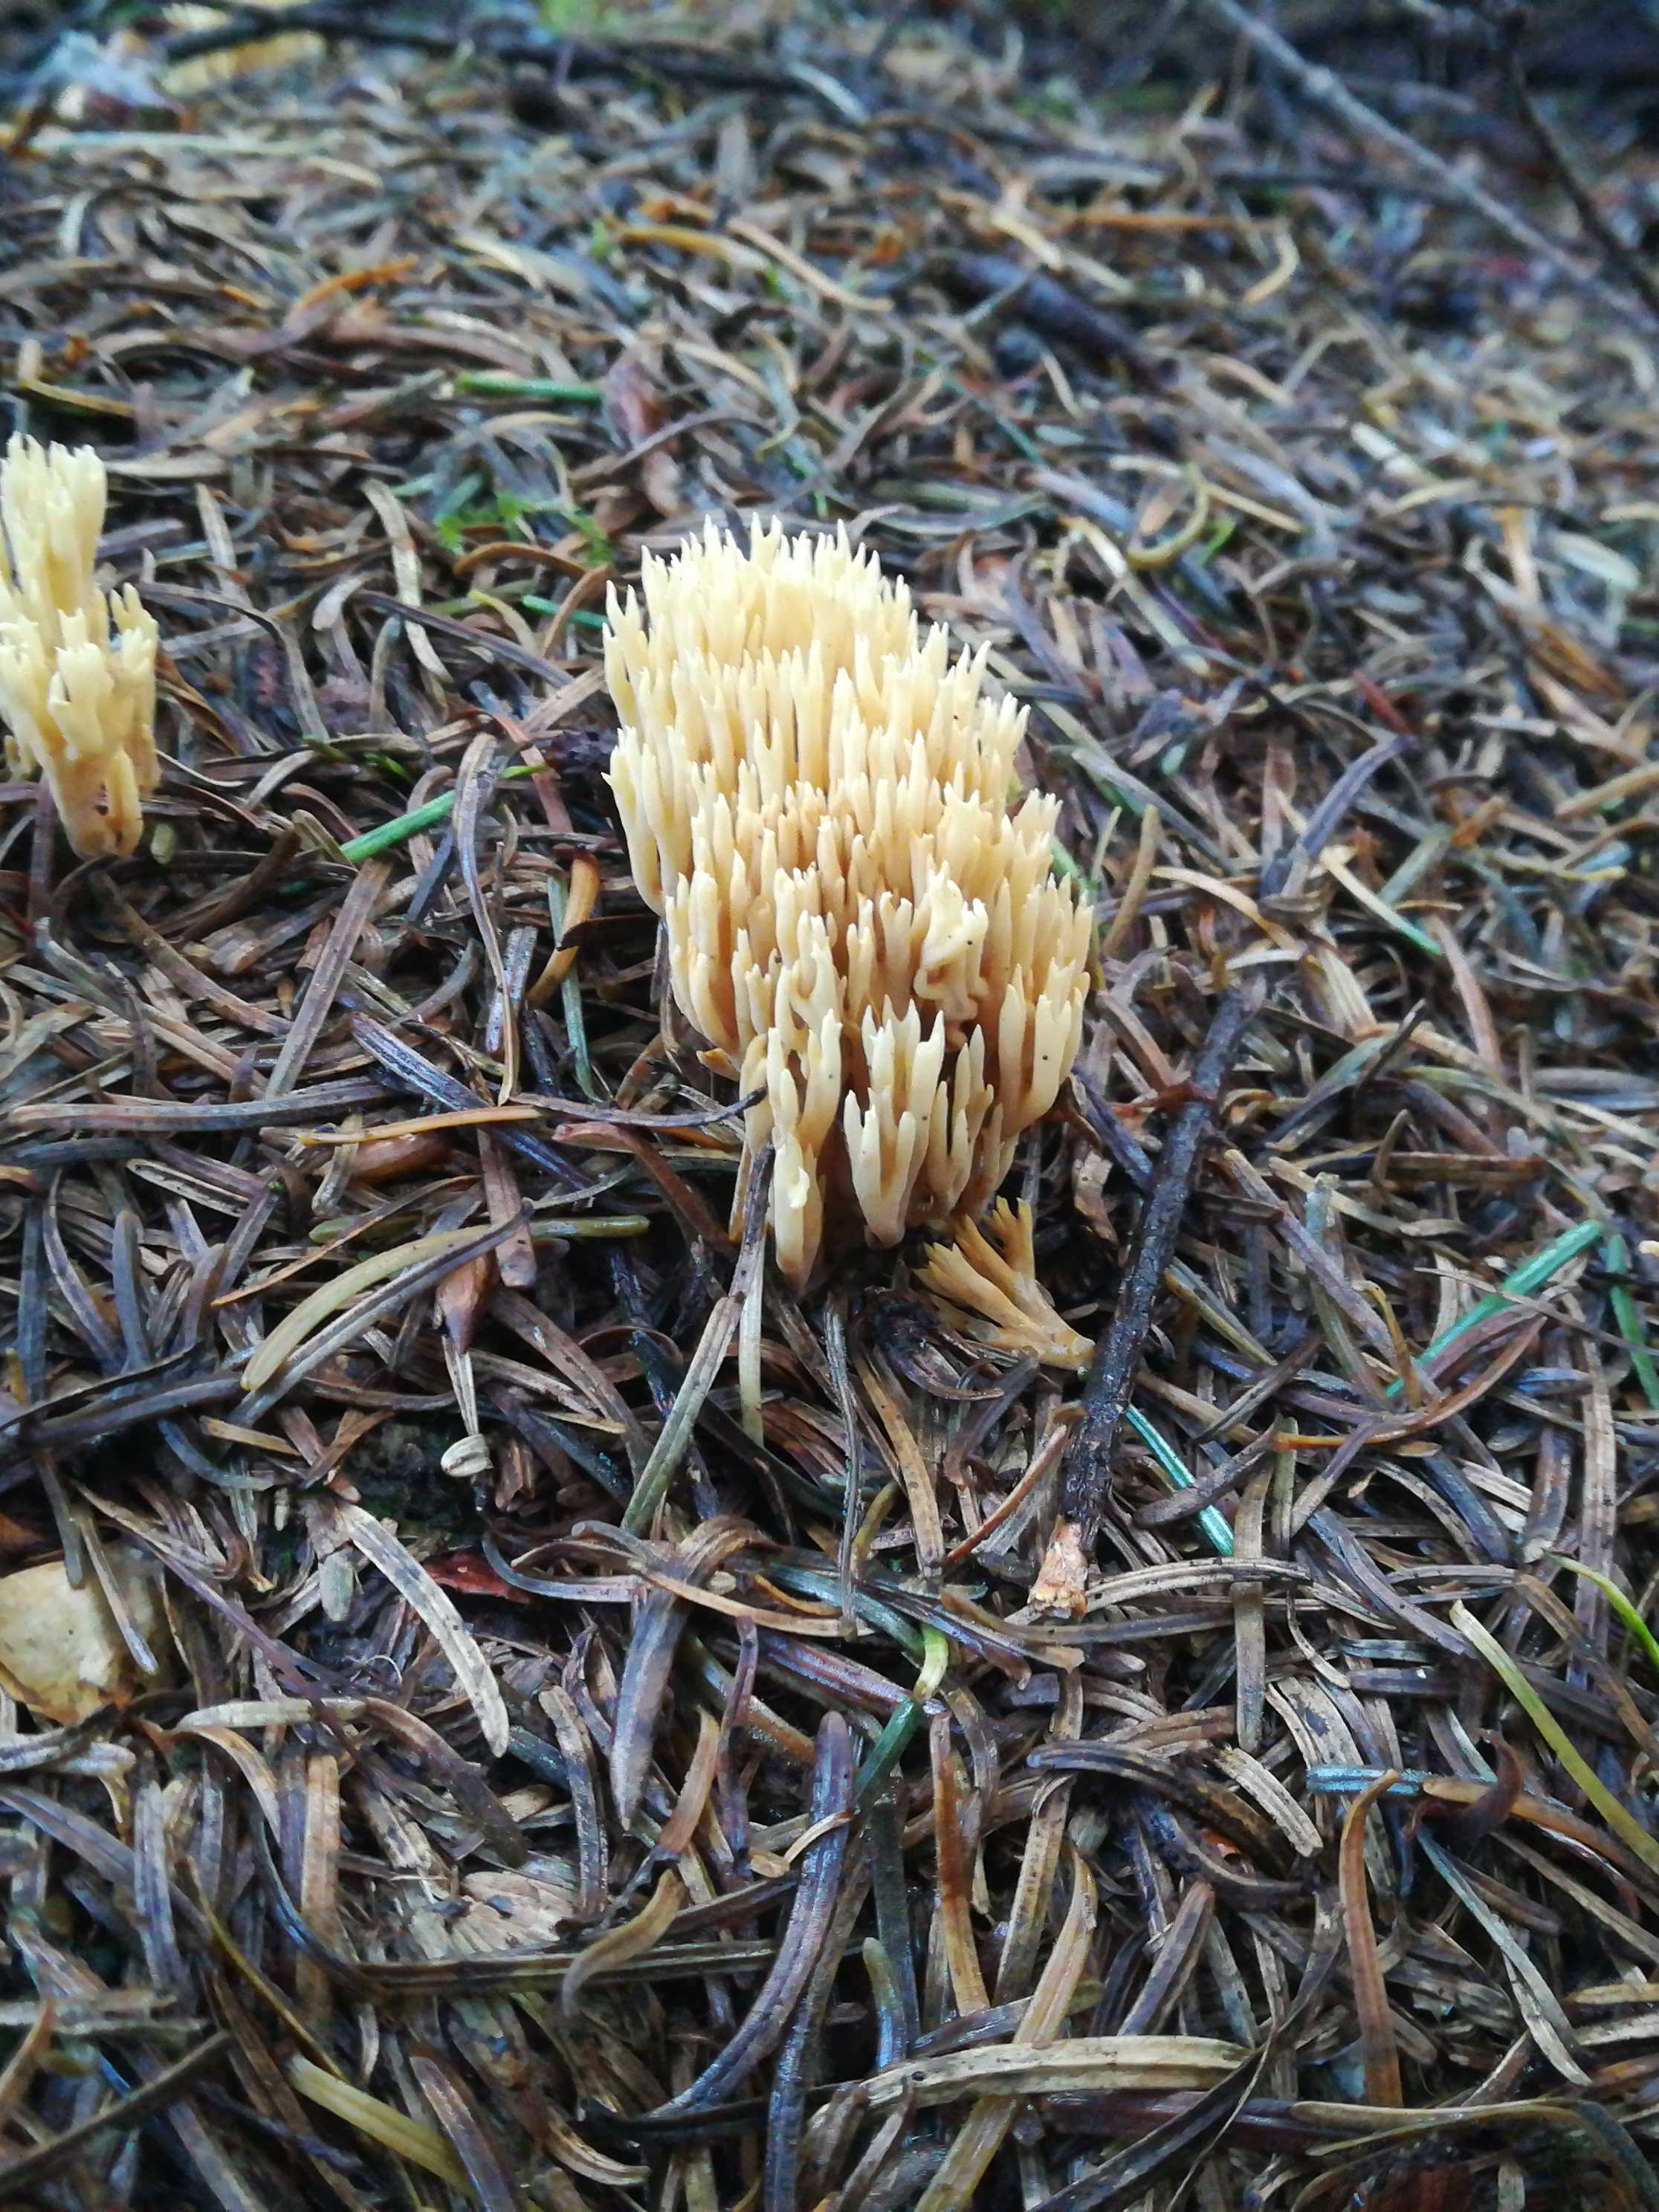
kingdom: Fungi
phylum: Basidiomycota
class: Agaricomycetes
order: Gomphales
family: Gomphaceae
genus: Phaeoclavulina
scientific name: Phaeoclavulina eumorpha
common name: gran-koralsvamp
